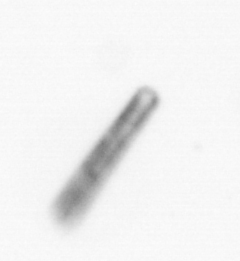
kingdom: Chromista
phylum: Ochrophyta
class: Bacillariophyceae
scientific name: Bacillariophyceae
